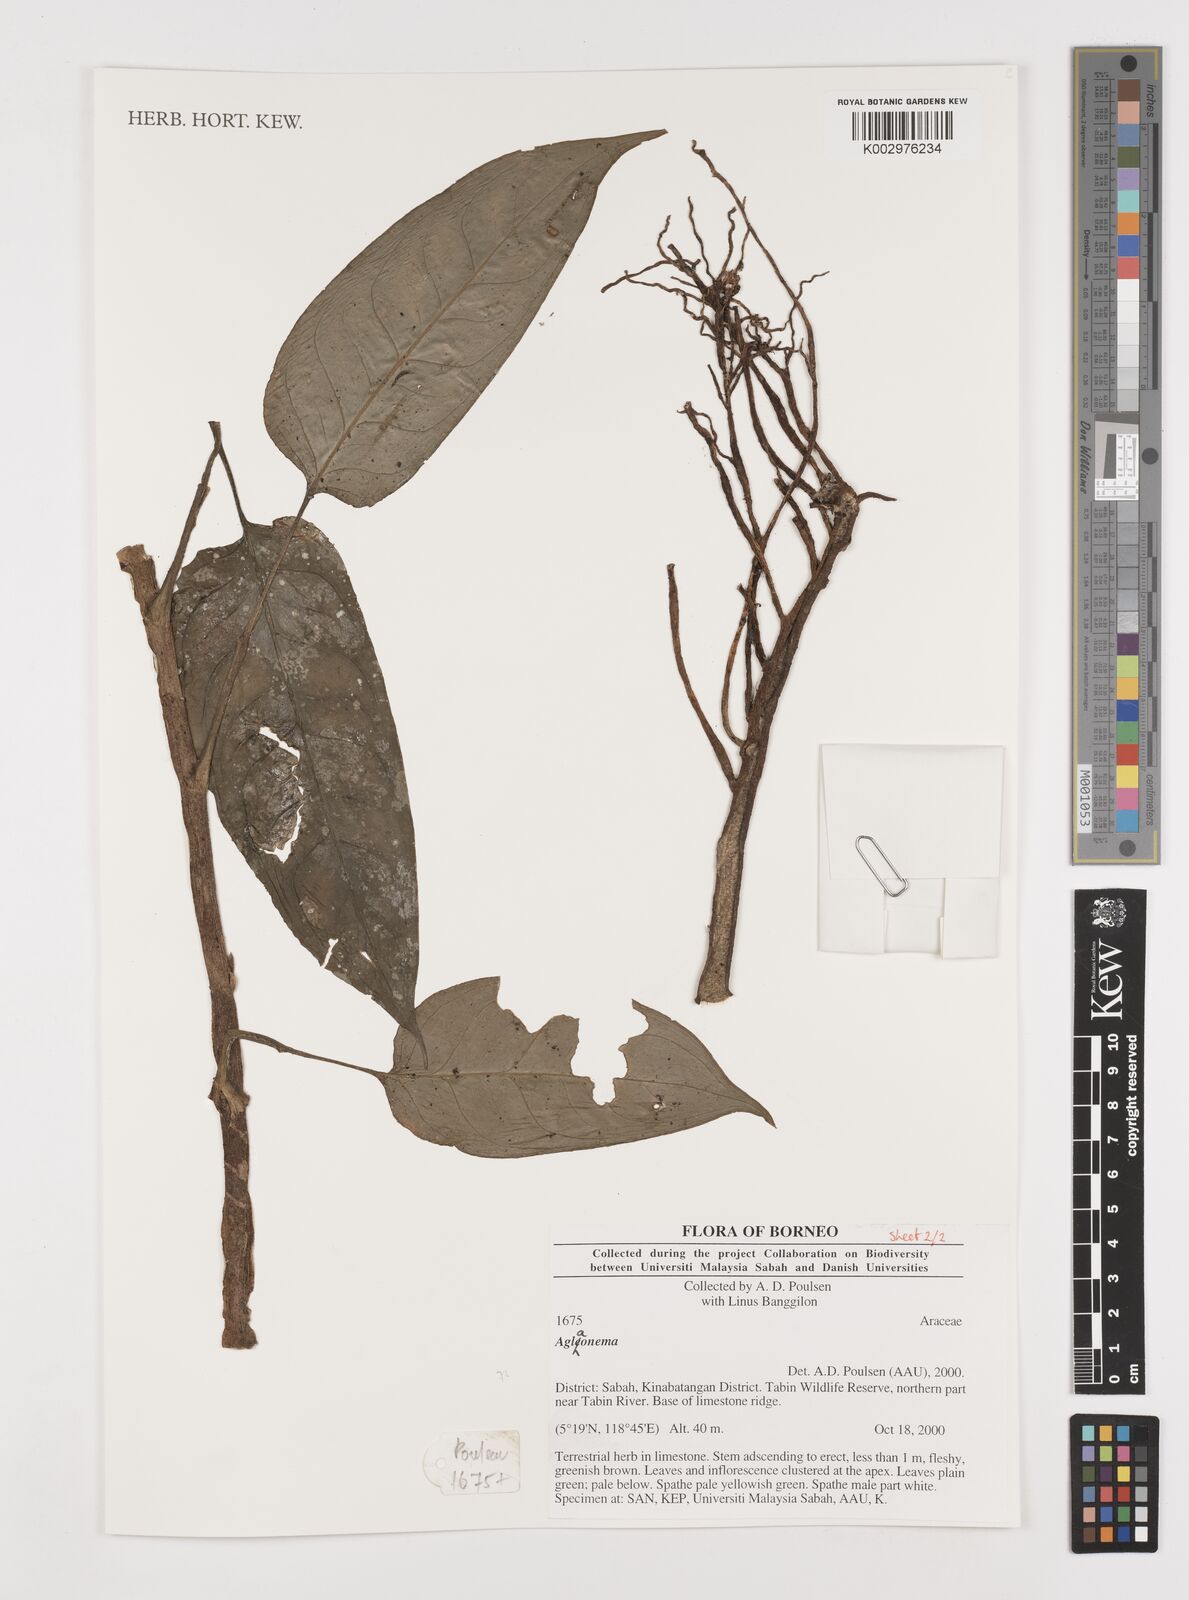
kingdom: Plantae
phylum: Tracheophyta
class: Liliopsida
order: Alismatales
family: Araceae
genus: Aglaonema
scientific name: Aglaonema
